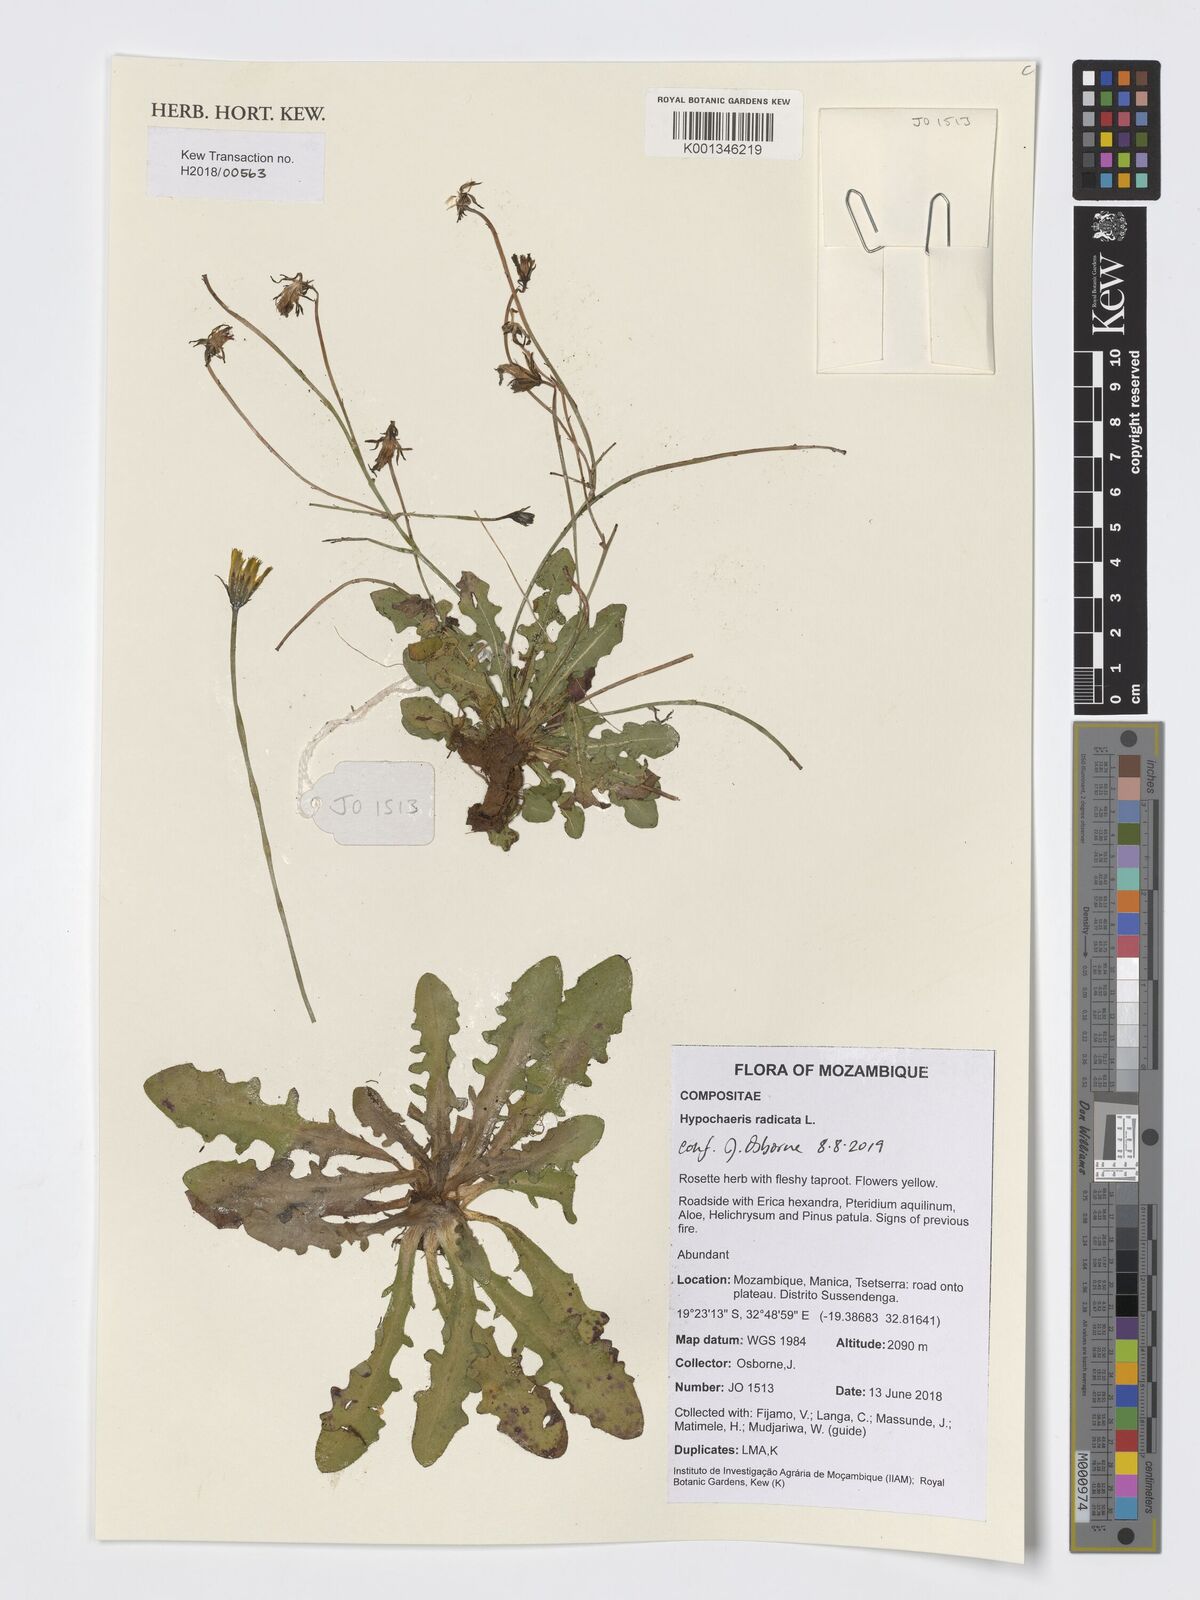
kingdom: Plantae
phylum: Tracheophyta
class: Magnoliopsida
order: Asterales
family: Asteraceae
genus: Hypochaeris
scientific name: Hypochaeris radicata
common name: Flatweed
